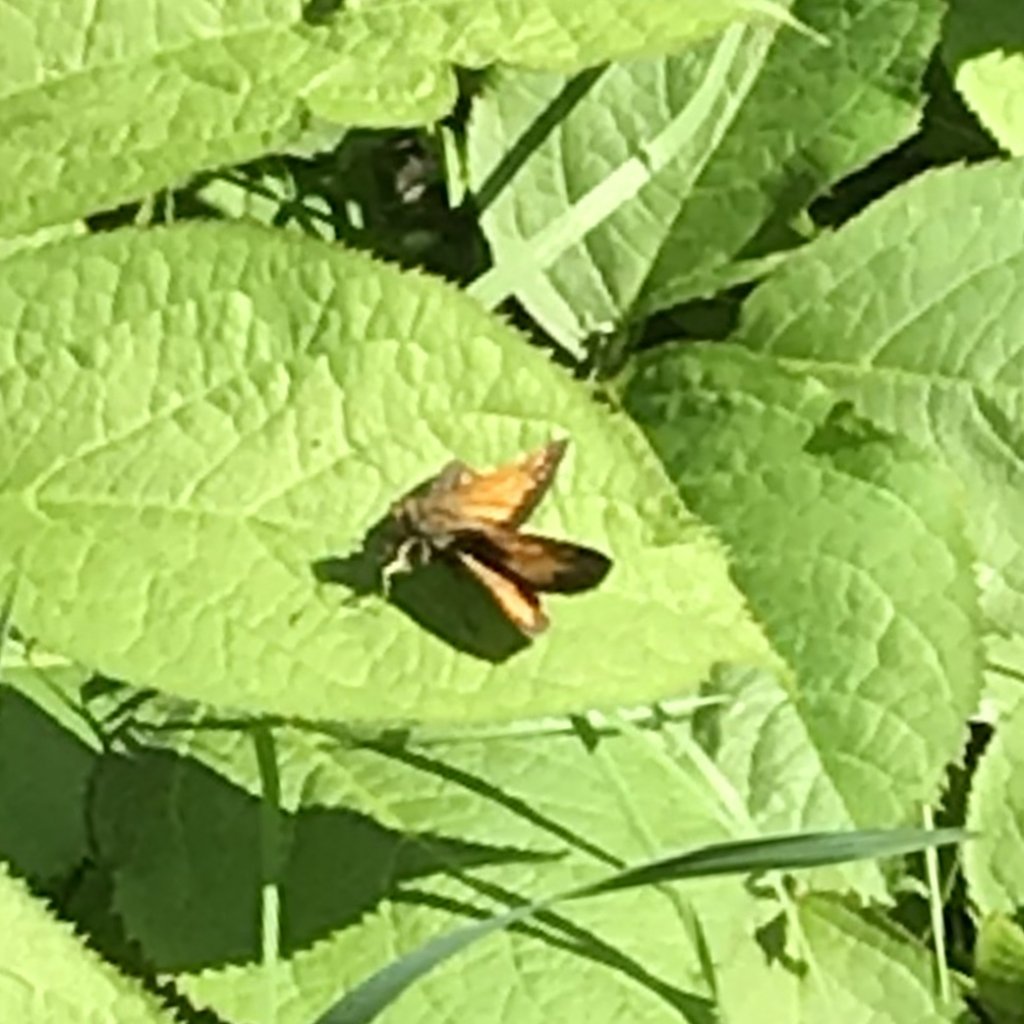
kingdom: Animalia
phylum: Arthropoda
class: Insecta
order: Lepidoptera
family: Hesperiidae
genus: Lon
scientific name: Lon hobomok
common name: Hobomok Skipper
